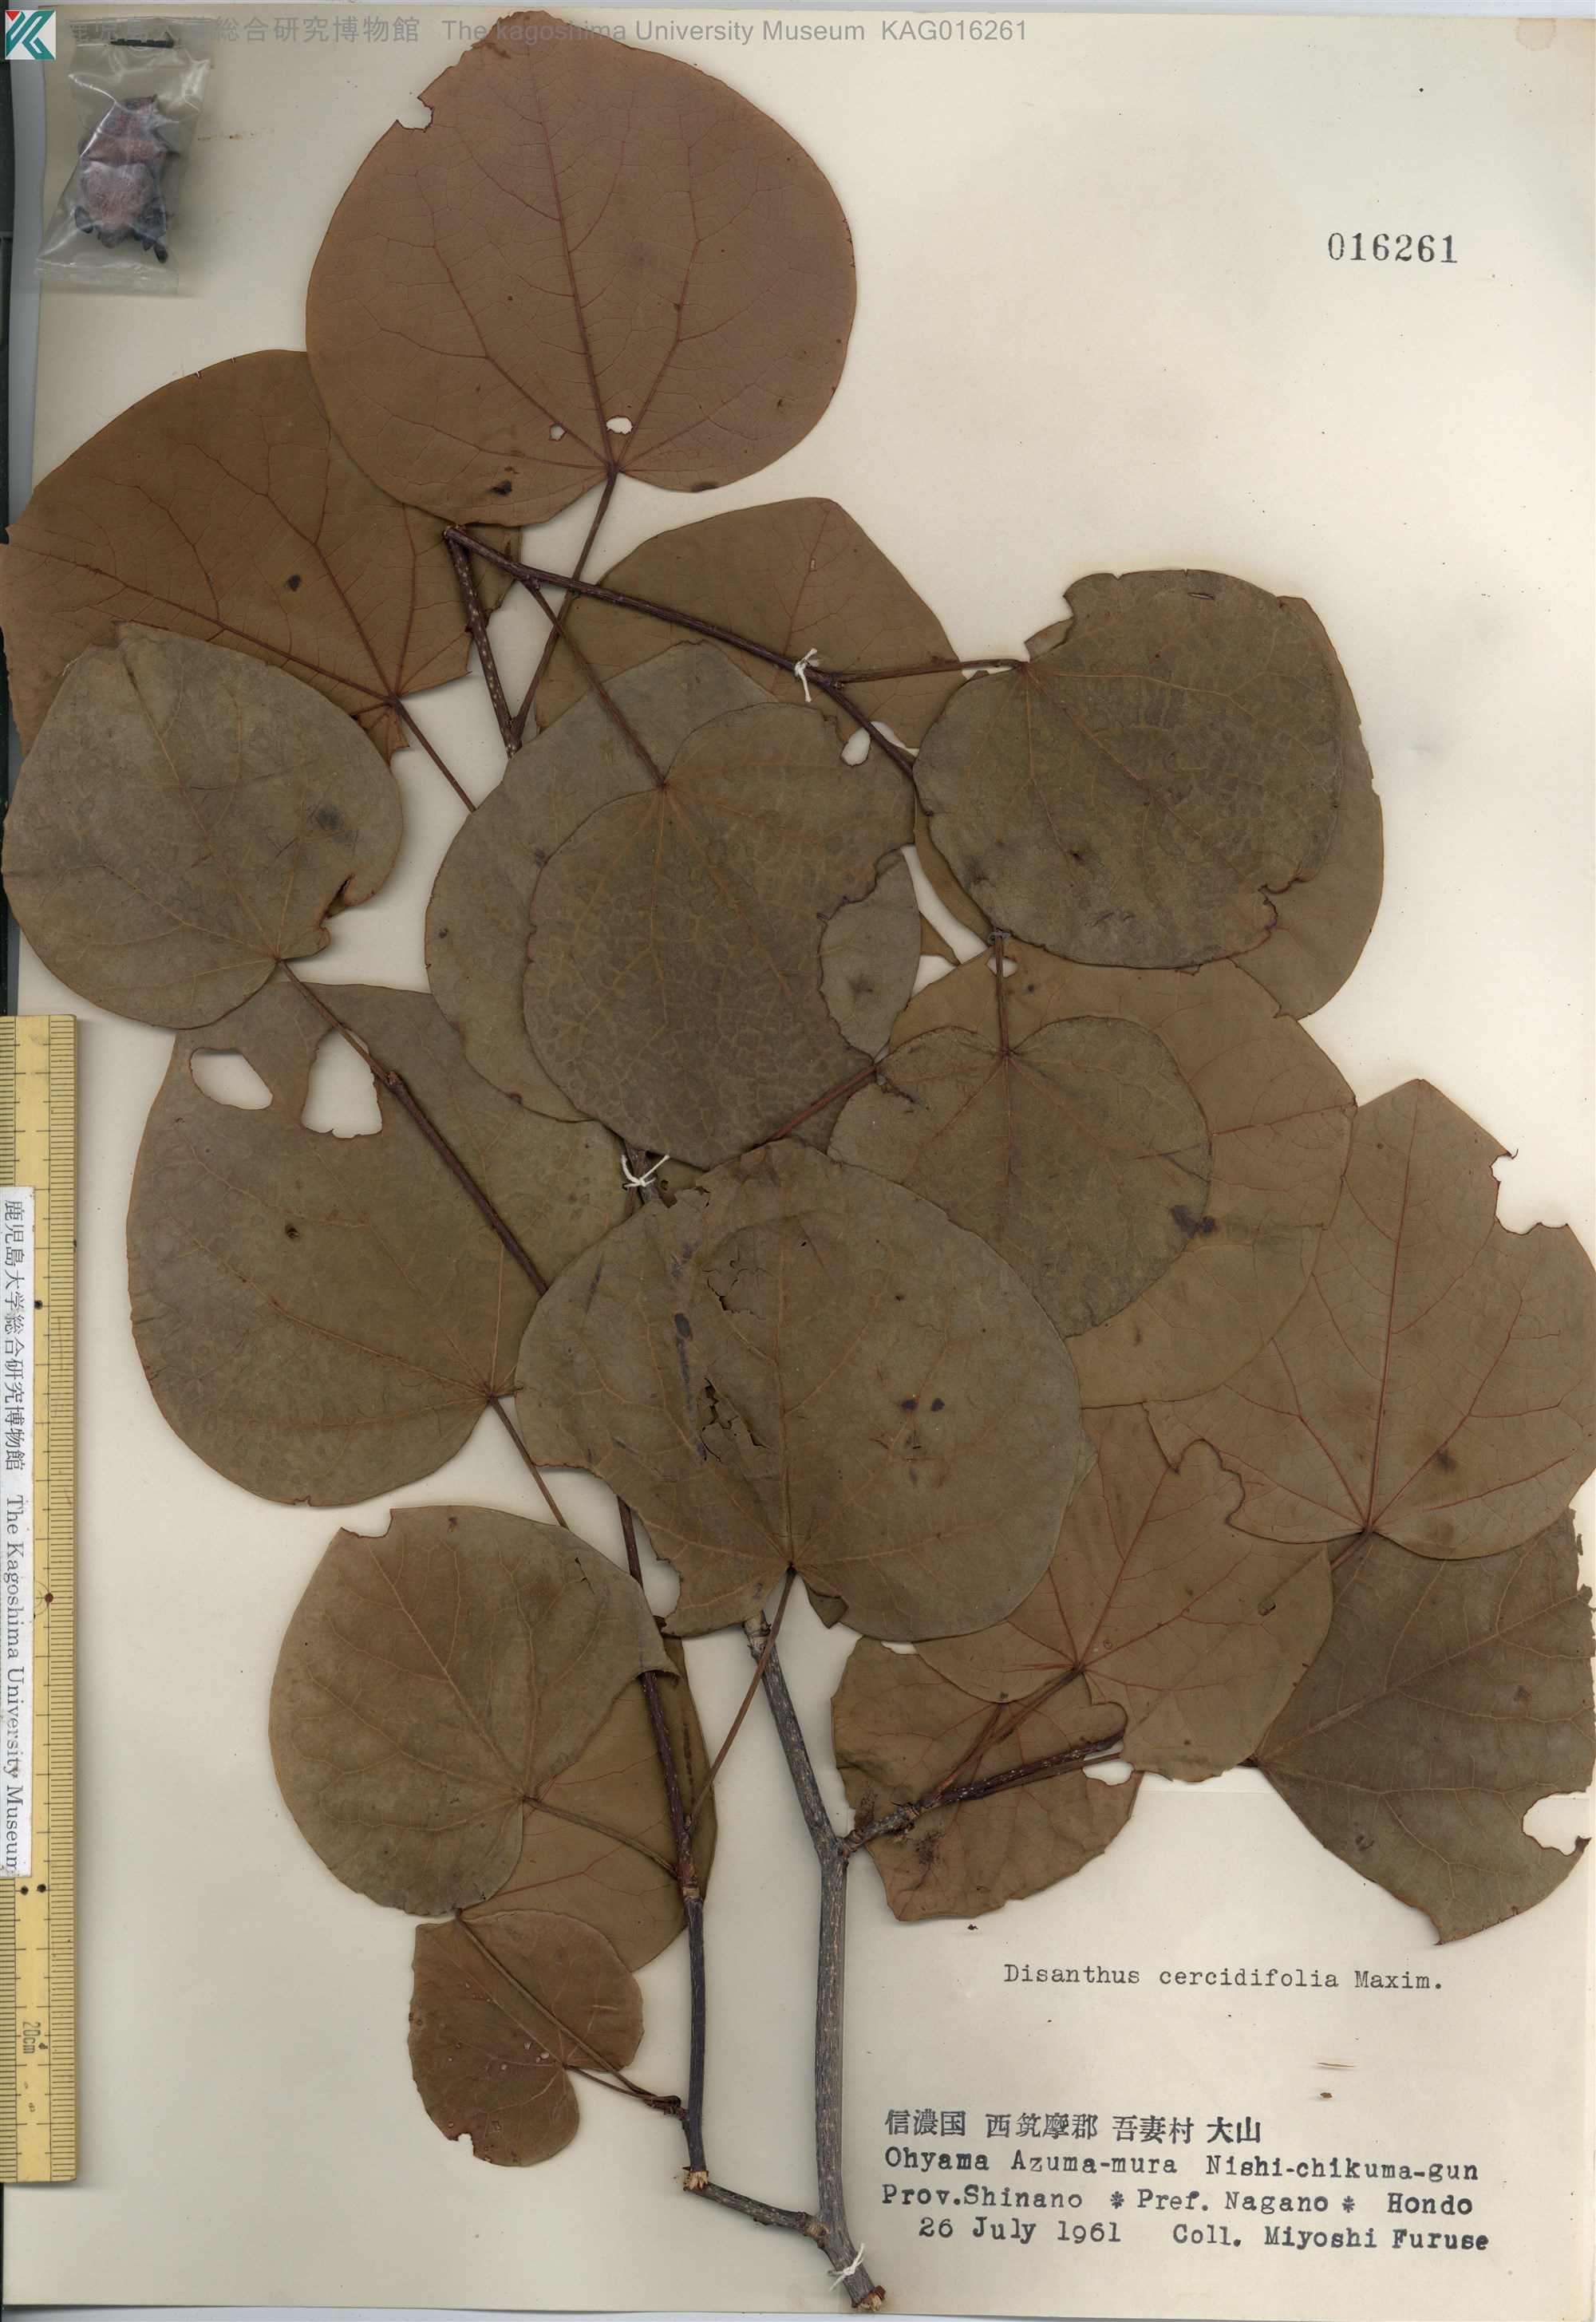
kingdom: Plantae
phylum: Tracheophyta
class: Magnoliopsida
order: Saxifragales
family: Hamamelidaceae
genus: Disanthus
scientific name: Disanthus cercidifolius
